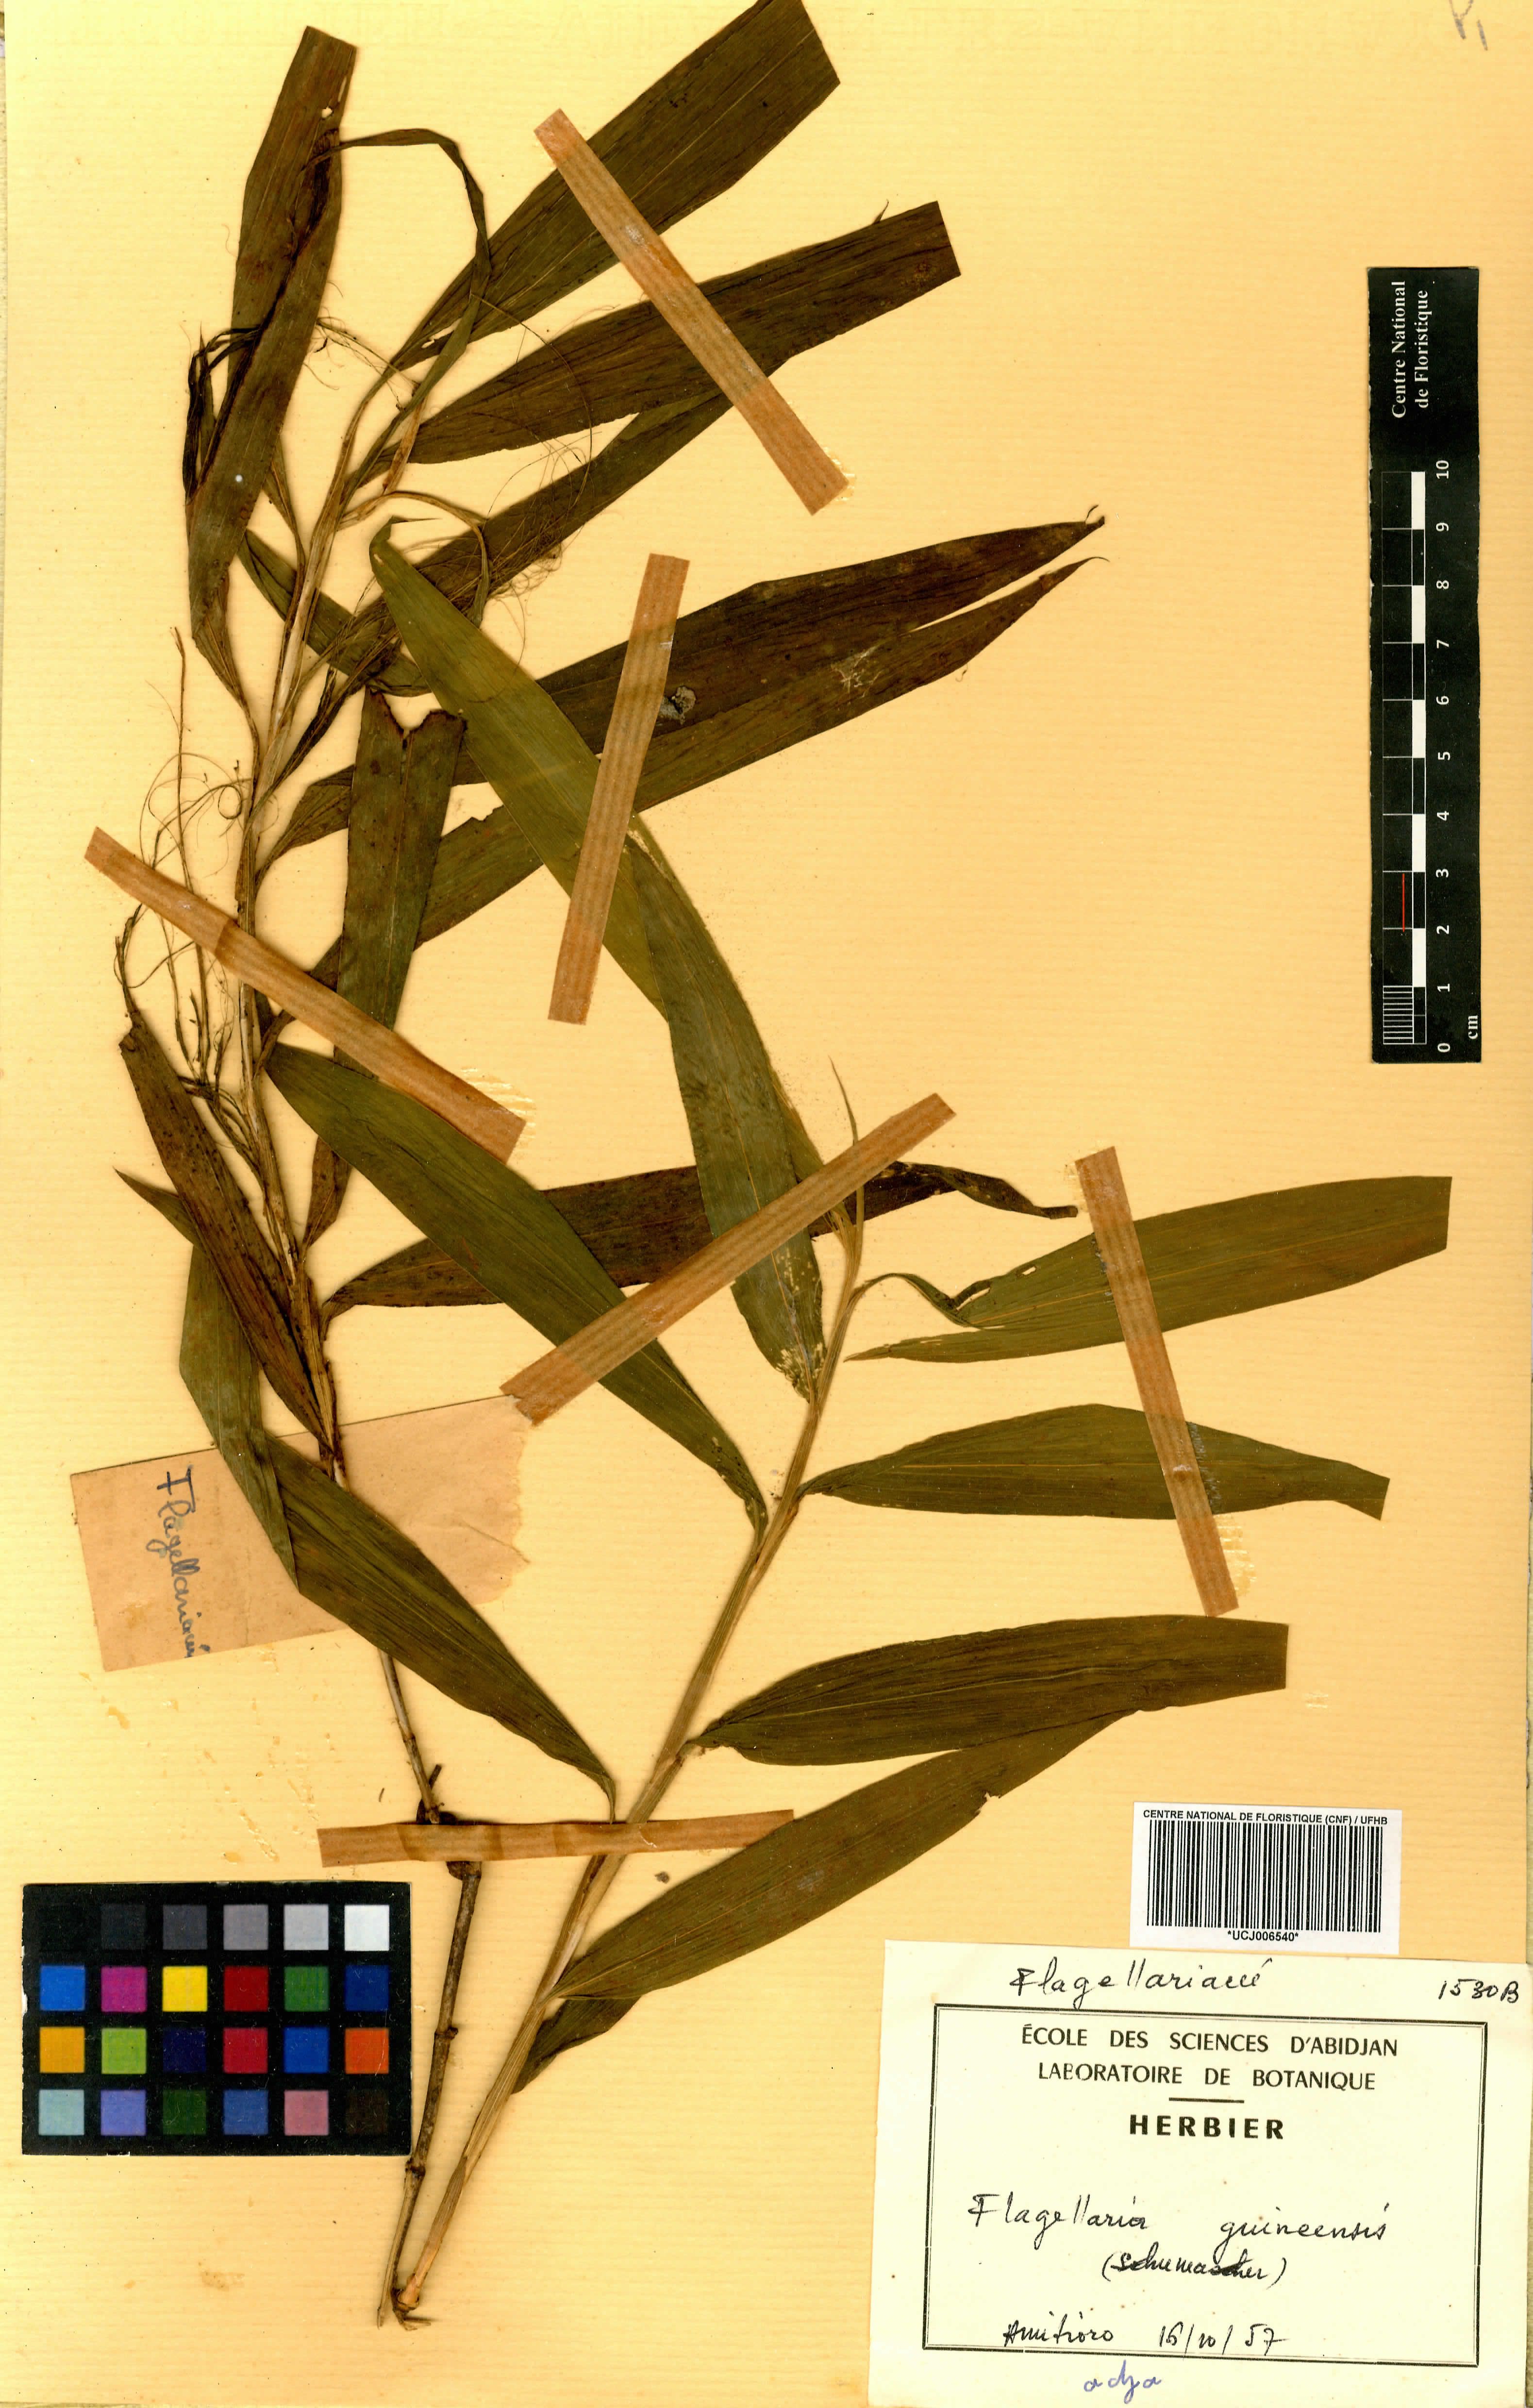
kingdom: Plantae
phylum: Tracheophyta
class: Liliopsida
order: Poales
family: Flagellariaceae
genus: Flagellaria
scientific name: Flagellaria guineensis
